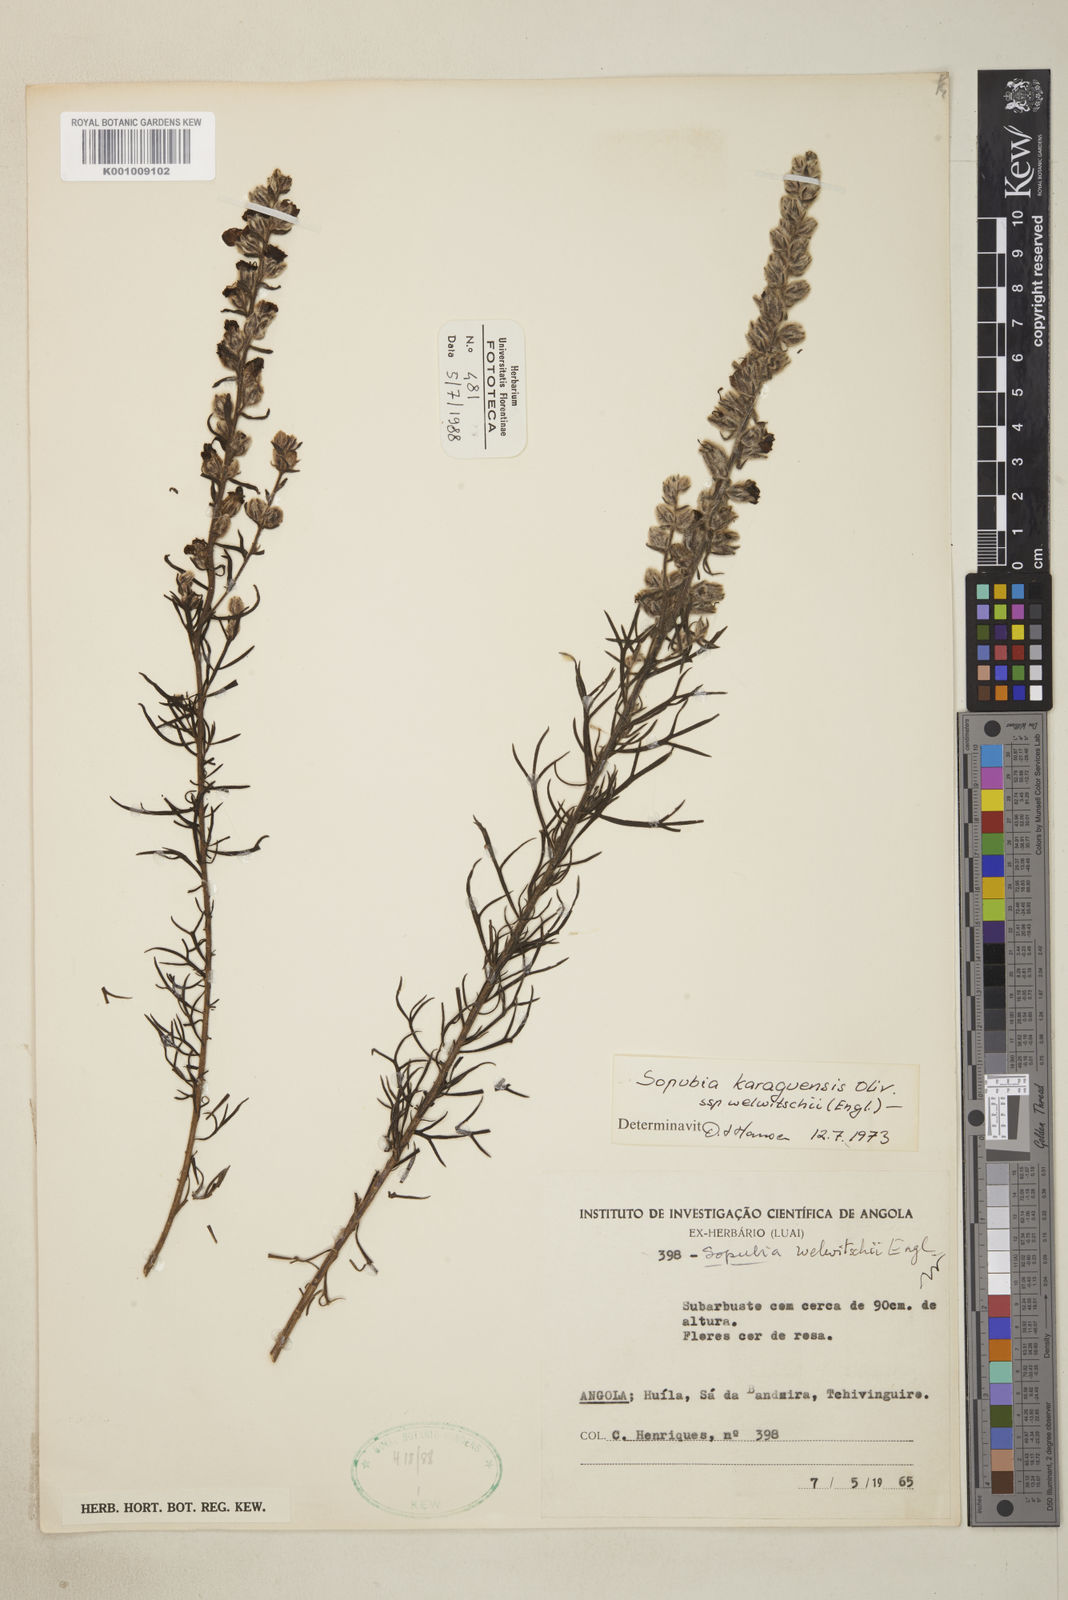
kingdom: Plantae
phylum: Tracheophyta
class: Magnoliopsida
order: Lamiales
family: Orobanchaceae
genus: Sopubia
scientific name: Sopubia karaguensis
